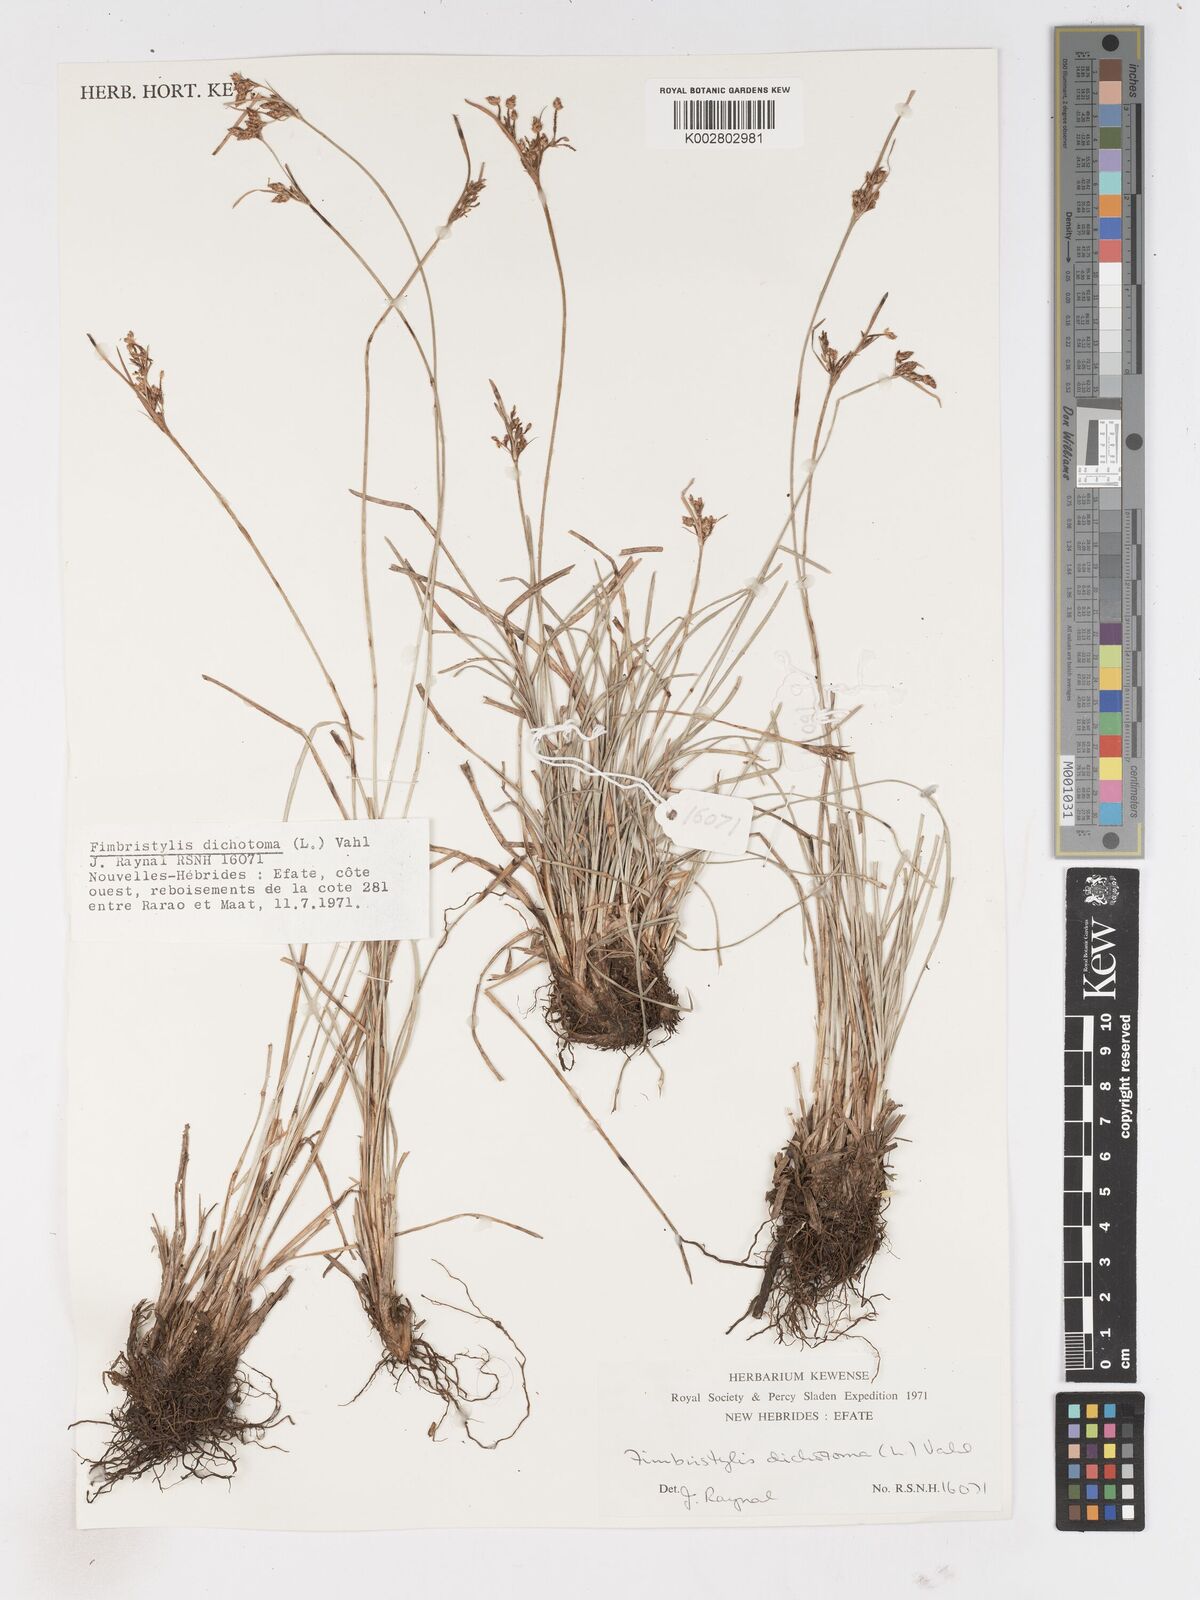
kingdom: Plantae
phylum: Tracheophyta
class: Liliopsida
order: Poales
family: Cyperaceae
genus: Fimbristylis
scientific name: Fimbristylis dichotoma
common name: Forked fimbry
